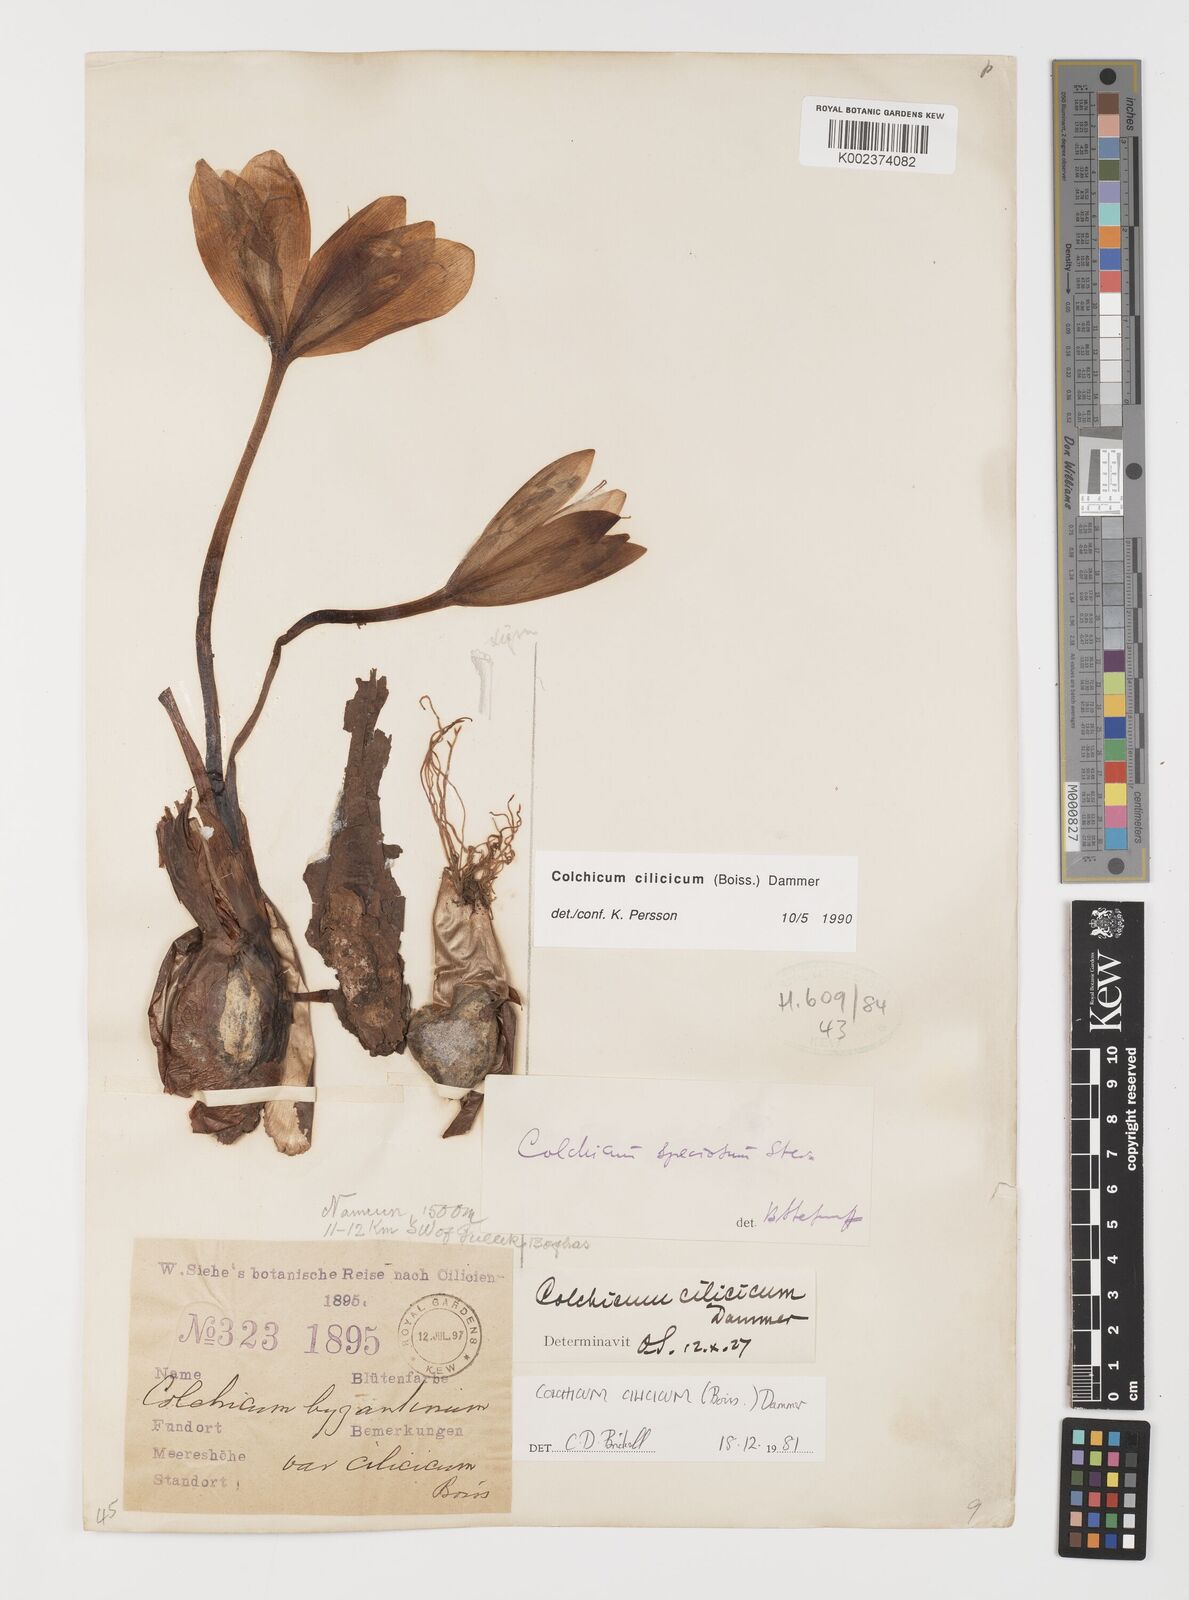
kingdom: Plantae
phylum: Tracheophyta
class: Liliopsida
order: Liliales
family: Colchicaceae
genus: Colchicum
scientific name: Colchicum cilicicum
